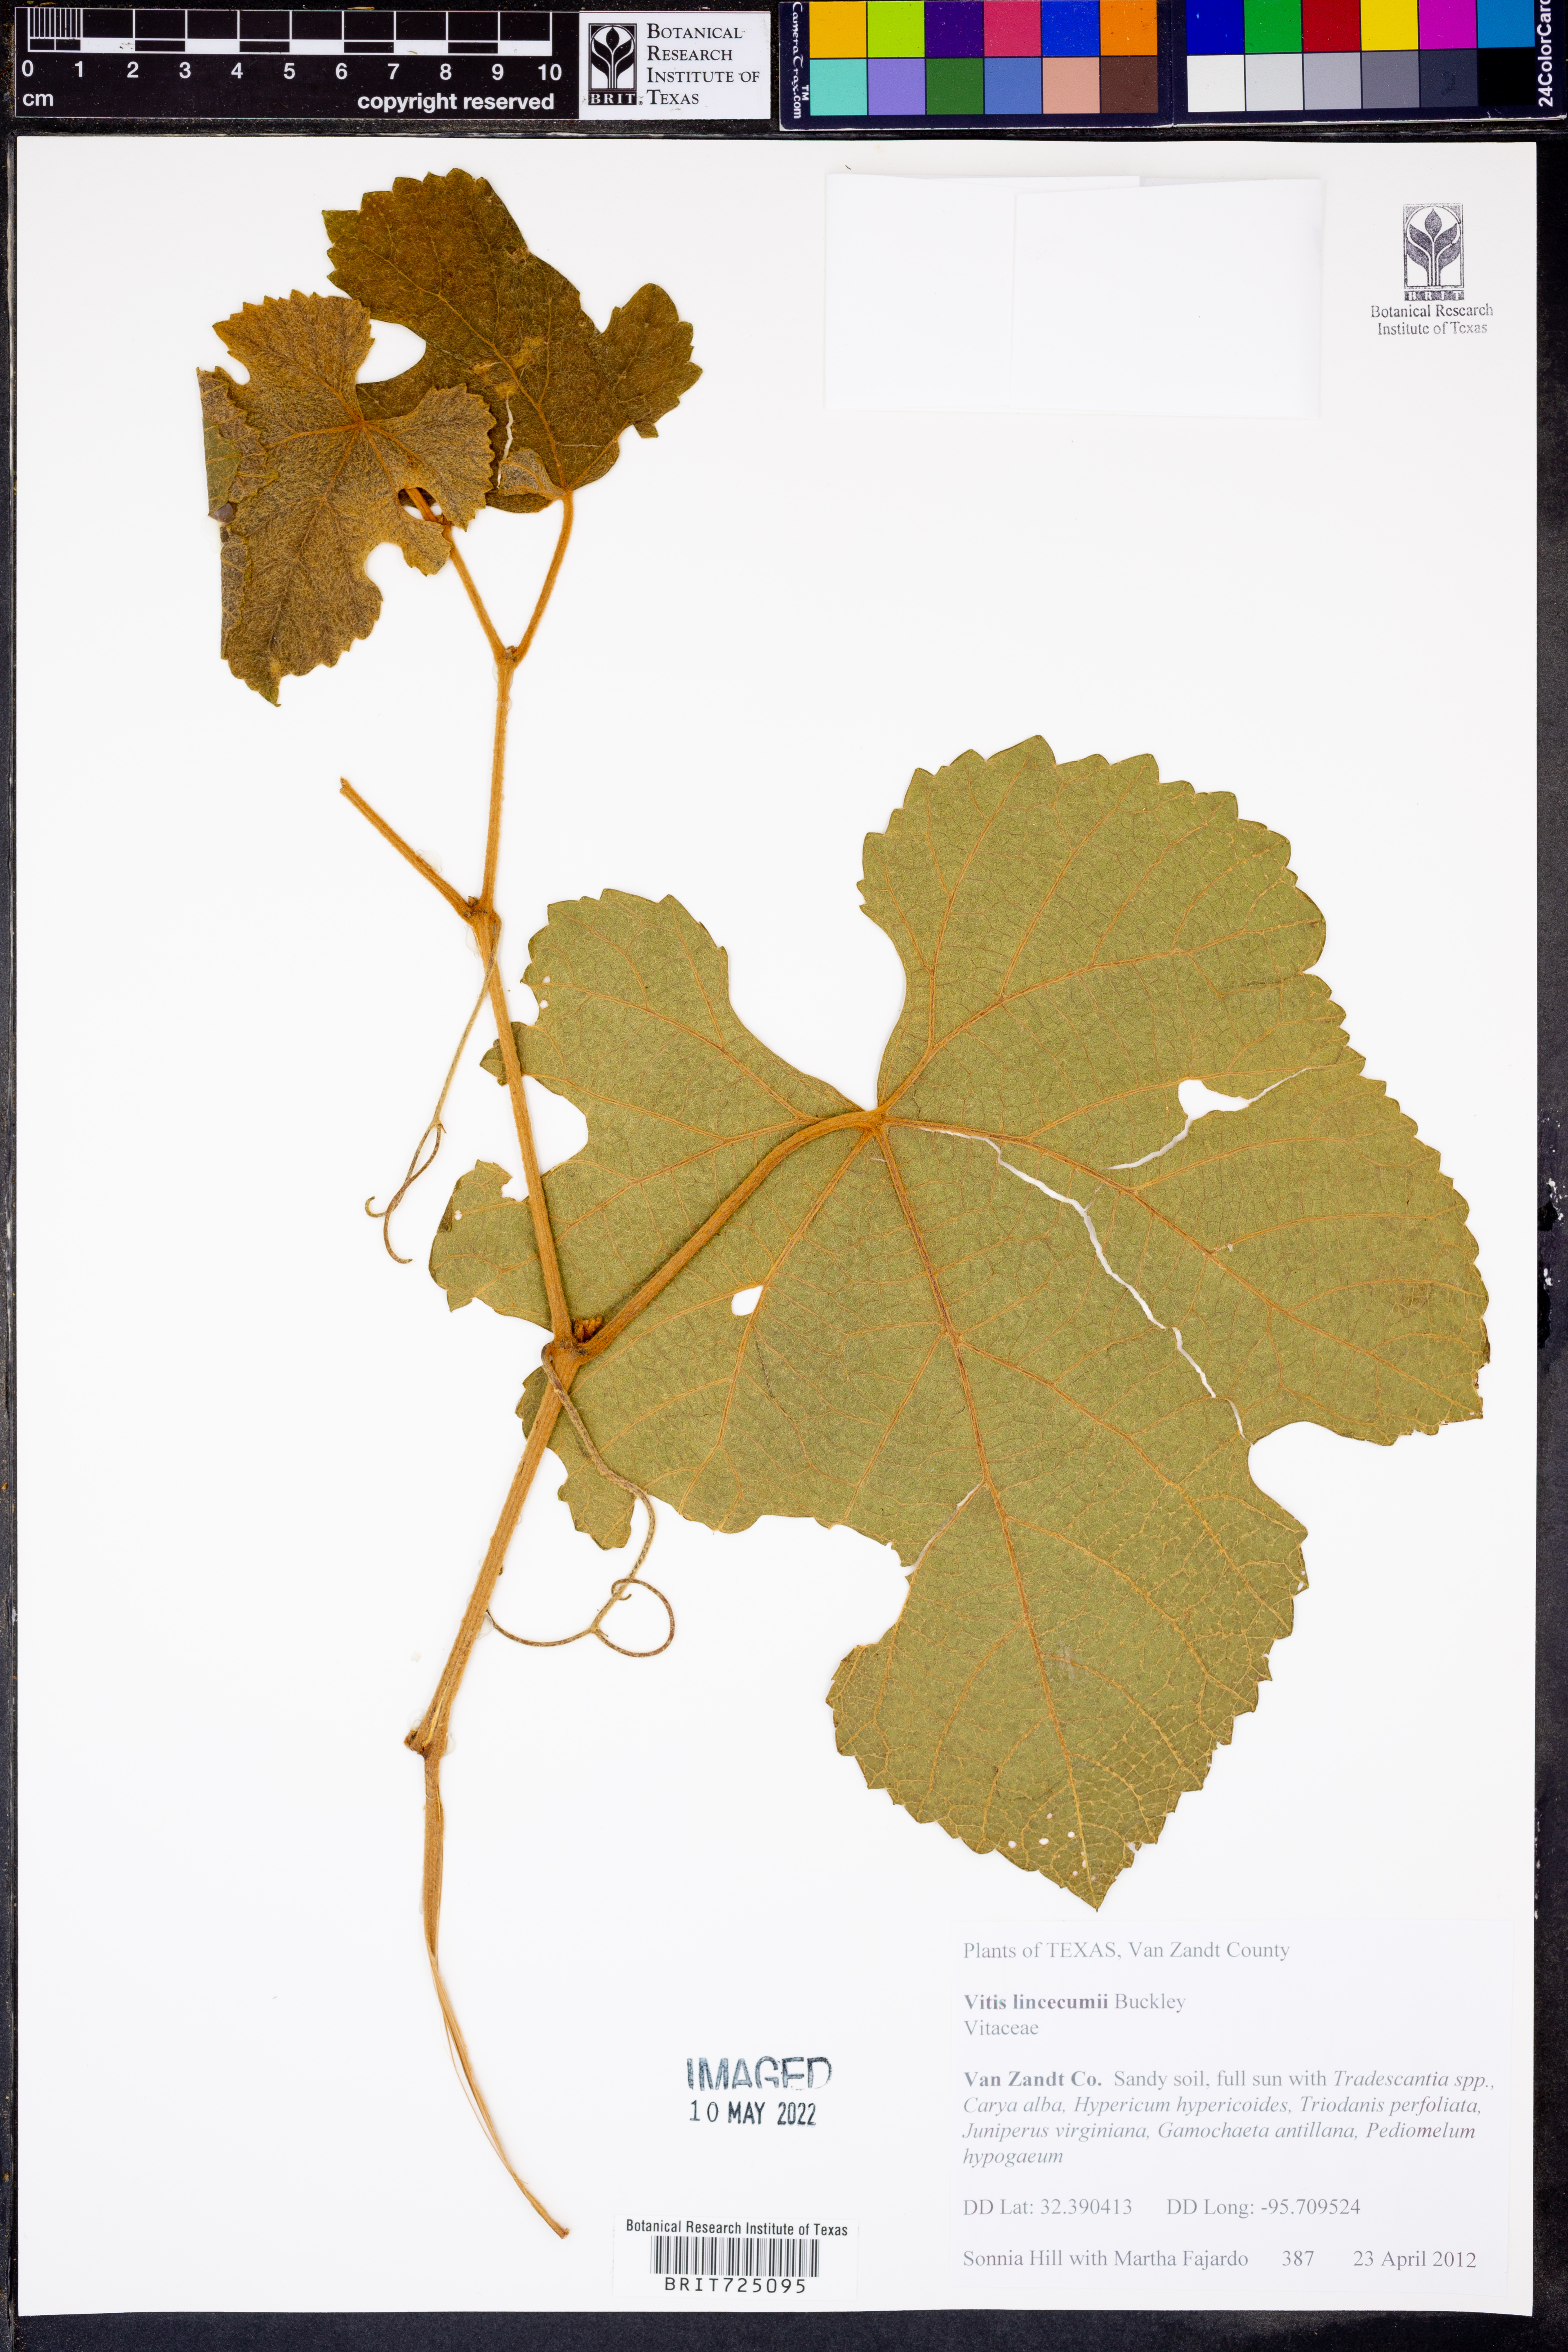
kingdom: Plantae
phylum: Tracheophyta
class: Magnoliopsida
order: Vitales
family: Vitaceae
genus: Vitis
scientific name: Vitis aestivalis
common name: Pigeon grape
